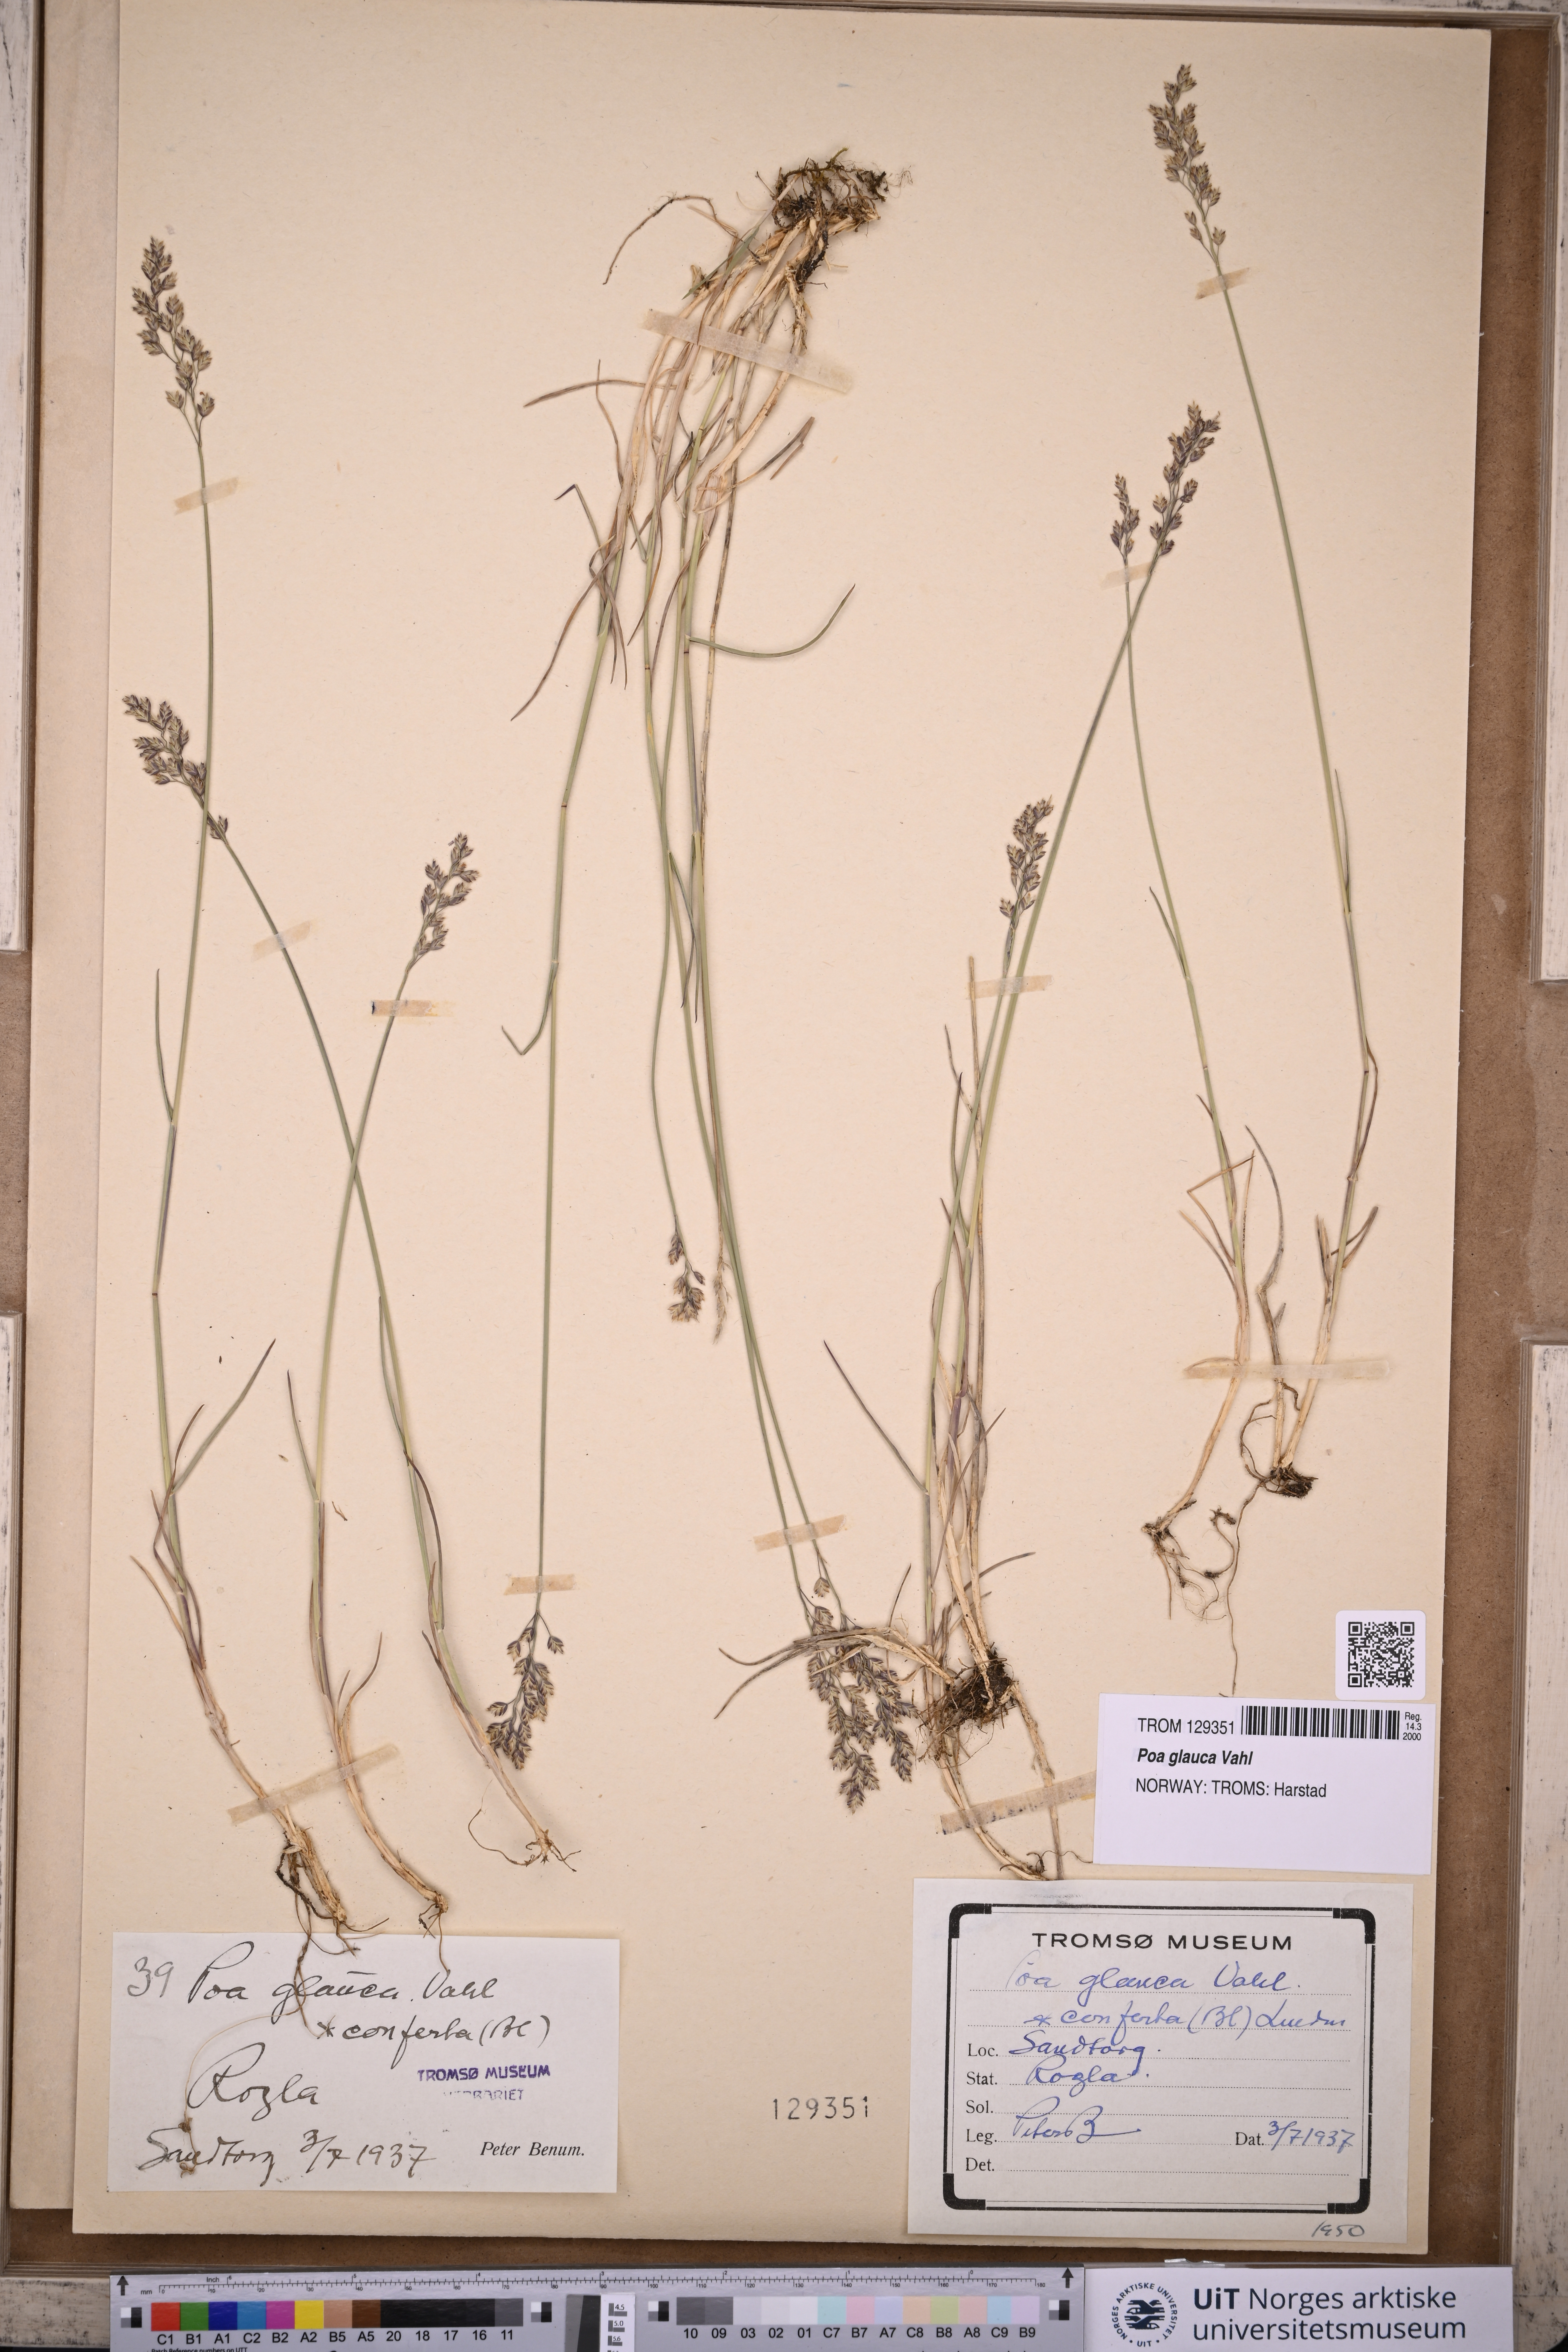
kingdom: Plantae
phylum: Tracheophyta
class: Liliopsida
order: Poales
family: Poaceae
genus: Poa
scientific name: Poa glauca
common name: Glaucous bluegrass
